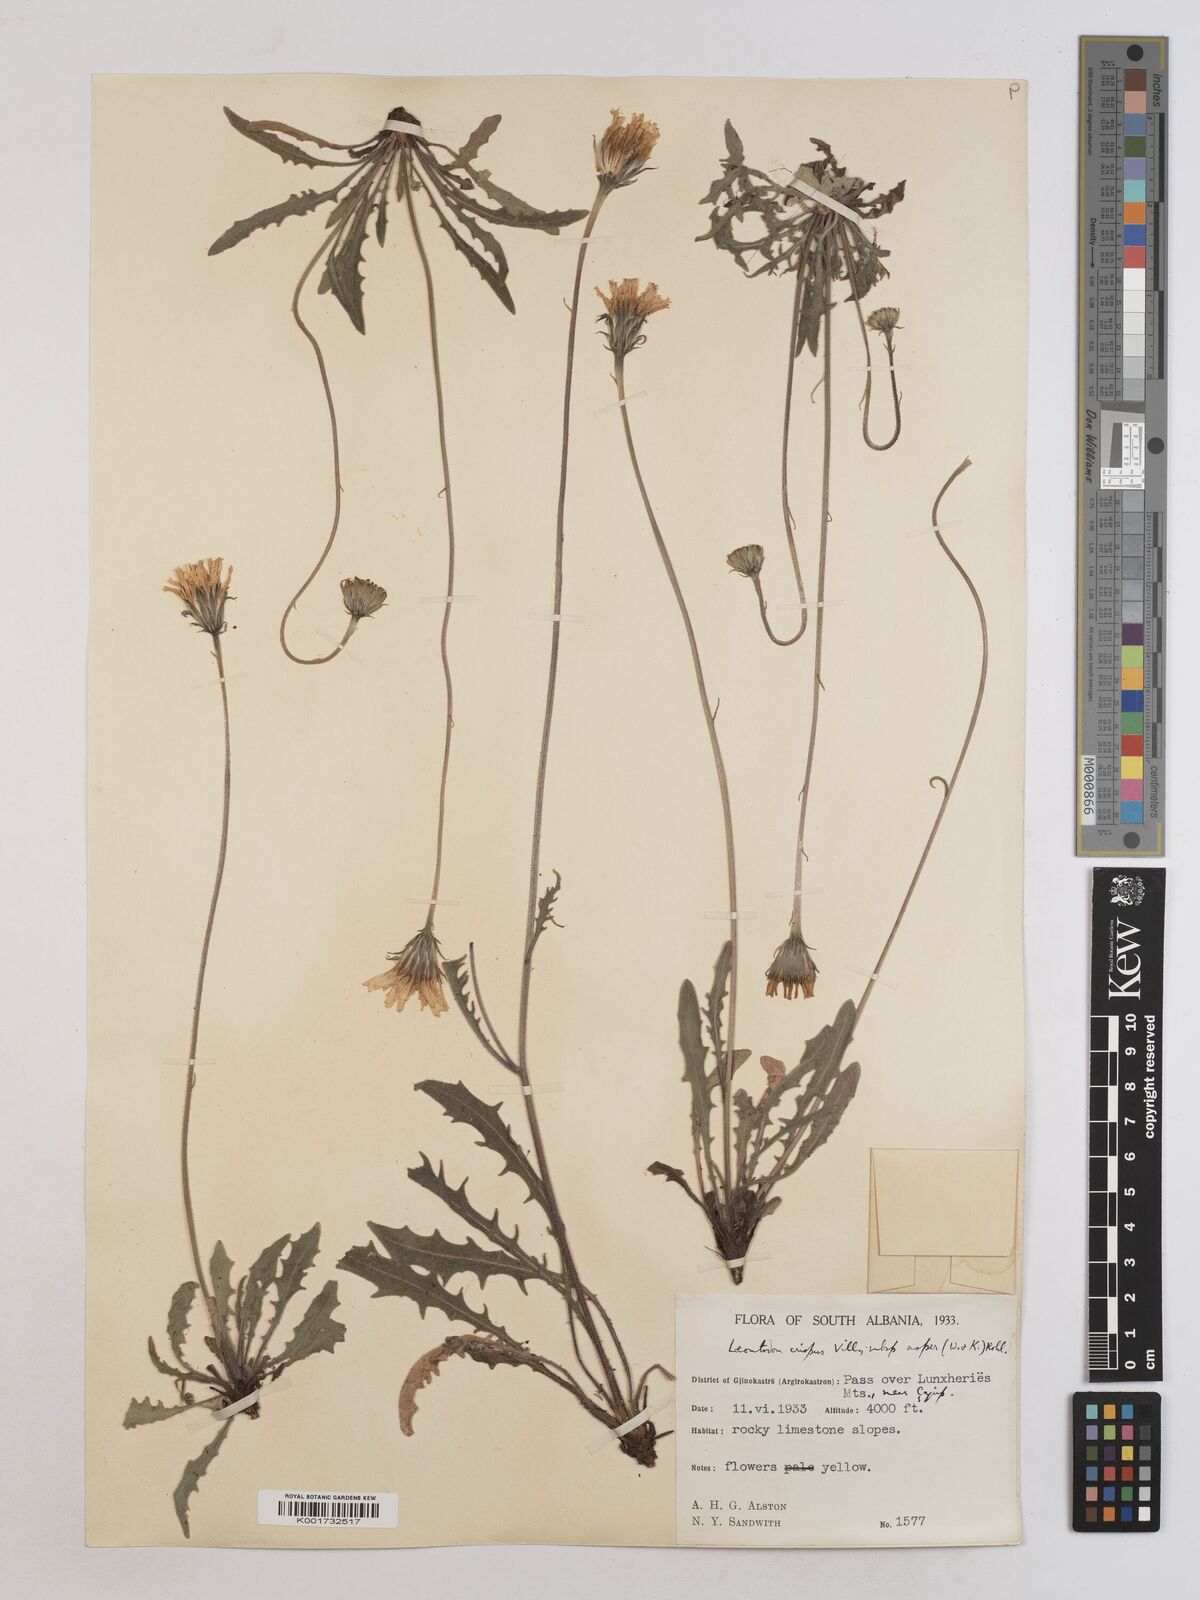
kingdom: Plantae
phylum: Tracheophyta
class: Magnoliopsida
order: Asterales
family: Asteraceae
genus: Leontodon
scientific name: Leontodon crispus
